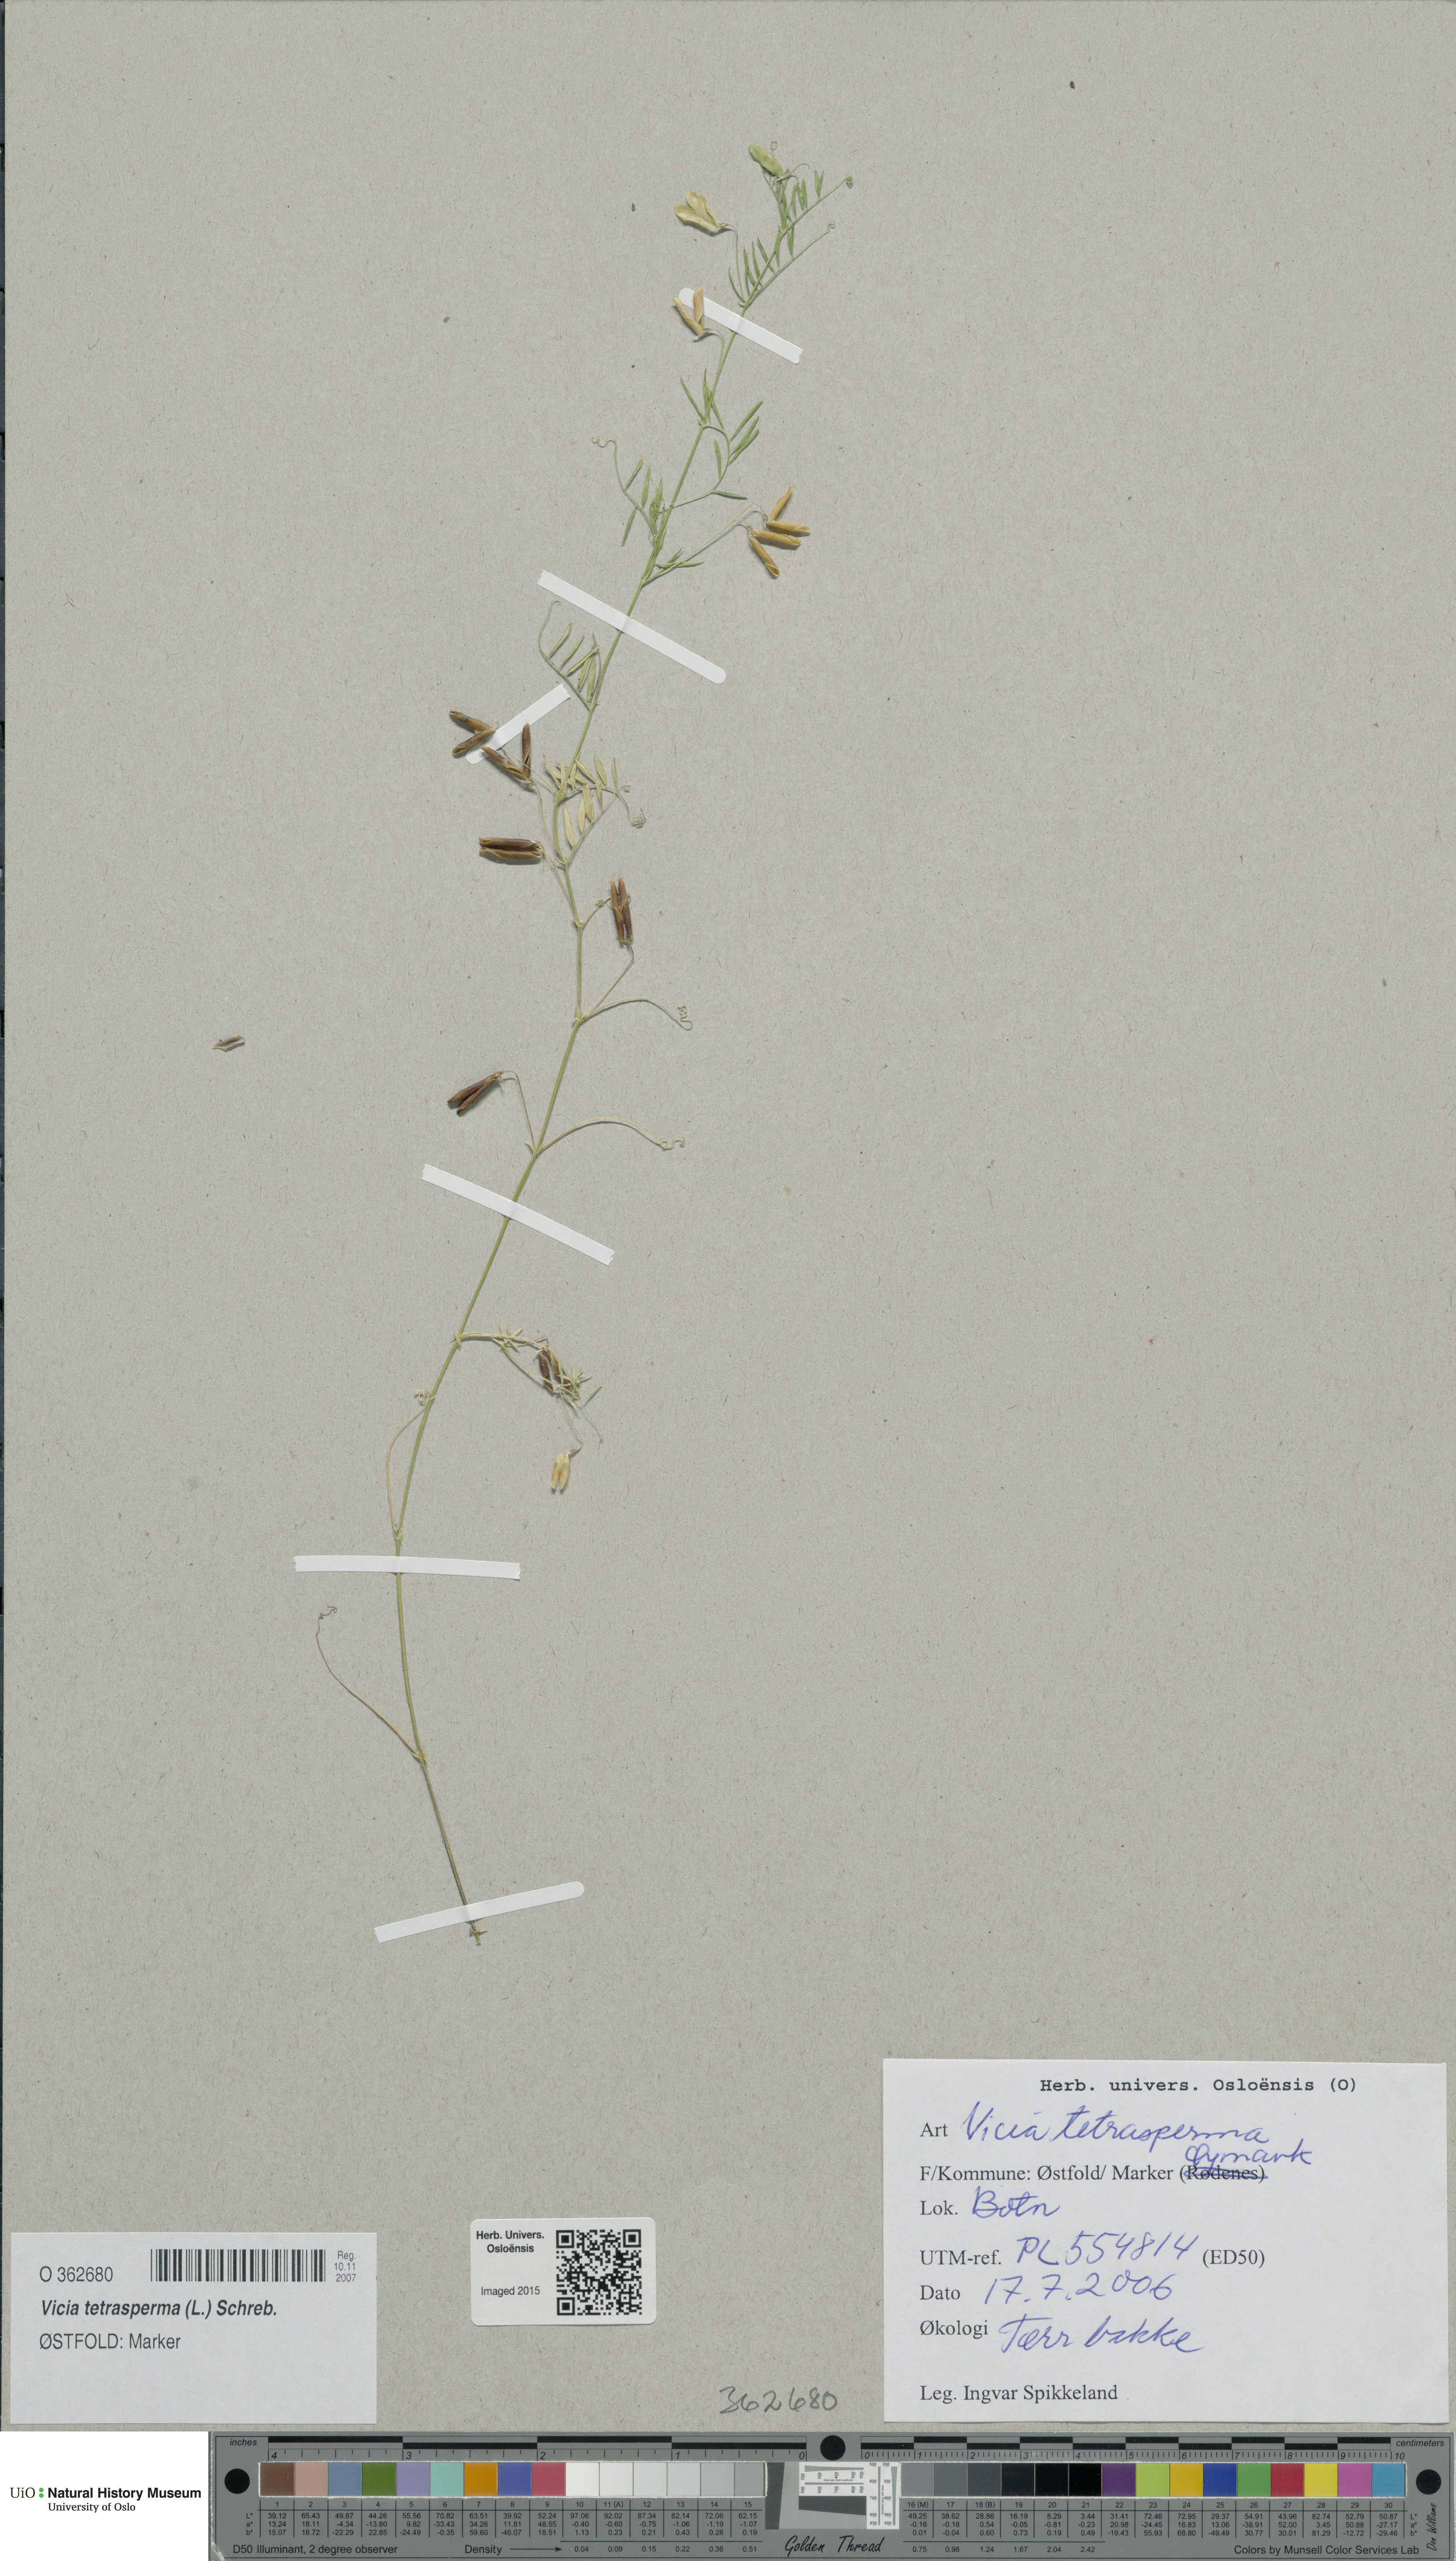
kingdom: Plantae
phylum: Tracheophyta
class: Magnoliopsida
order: Fabales
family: Fabaceae
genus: Vicia
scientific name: Vicia tetrasperma
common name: Smooth tare
